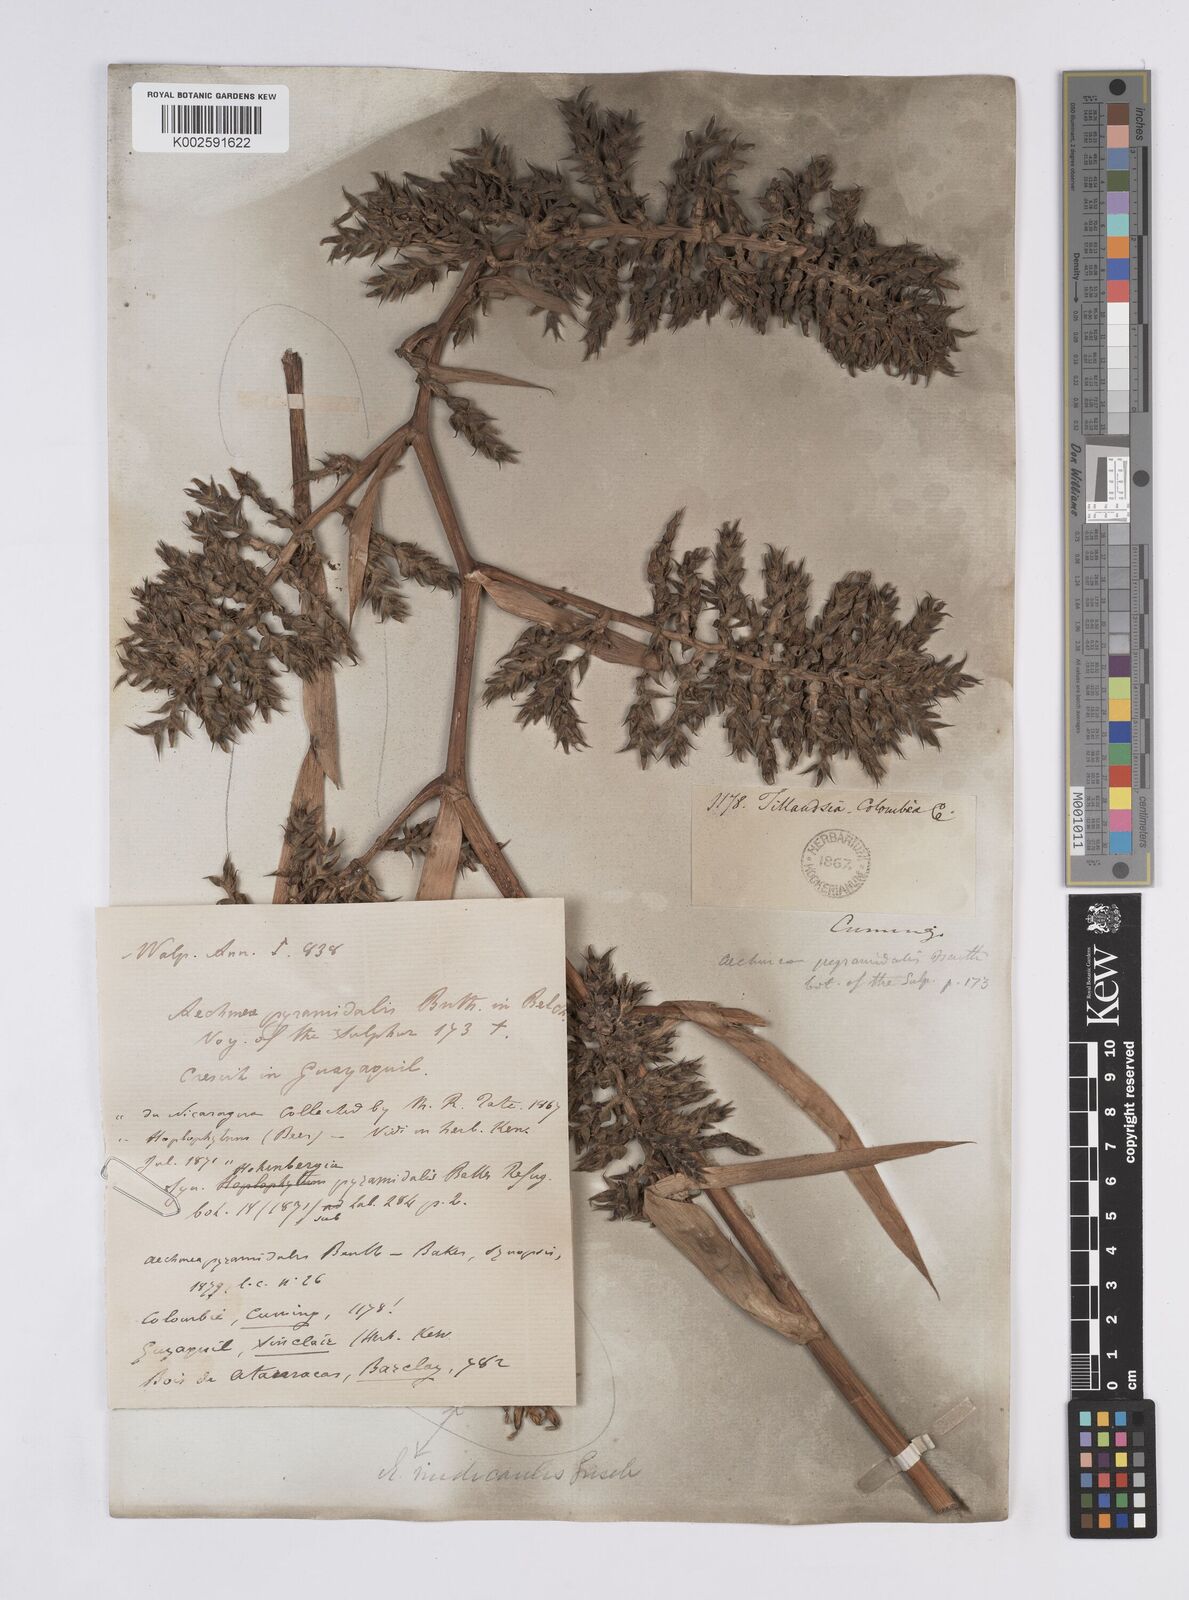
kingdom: Plantae
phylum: Tracheophyta
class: Liliopsida
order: Poales
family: Bromeliaceae
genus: Aechmea
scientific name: Aechmea pyramidalis
